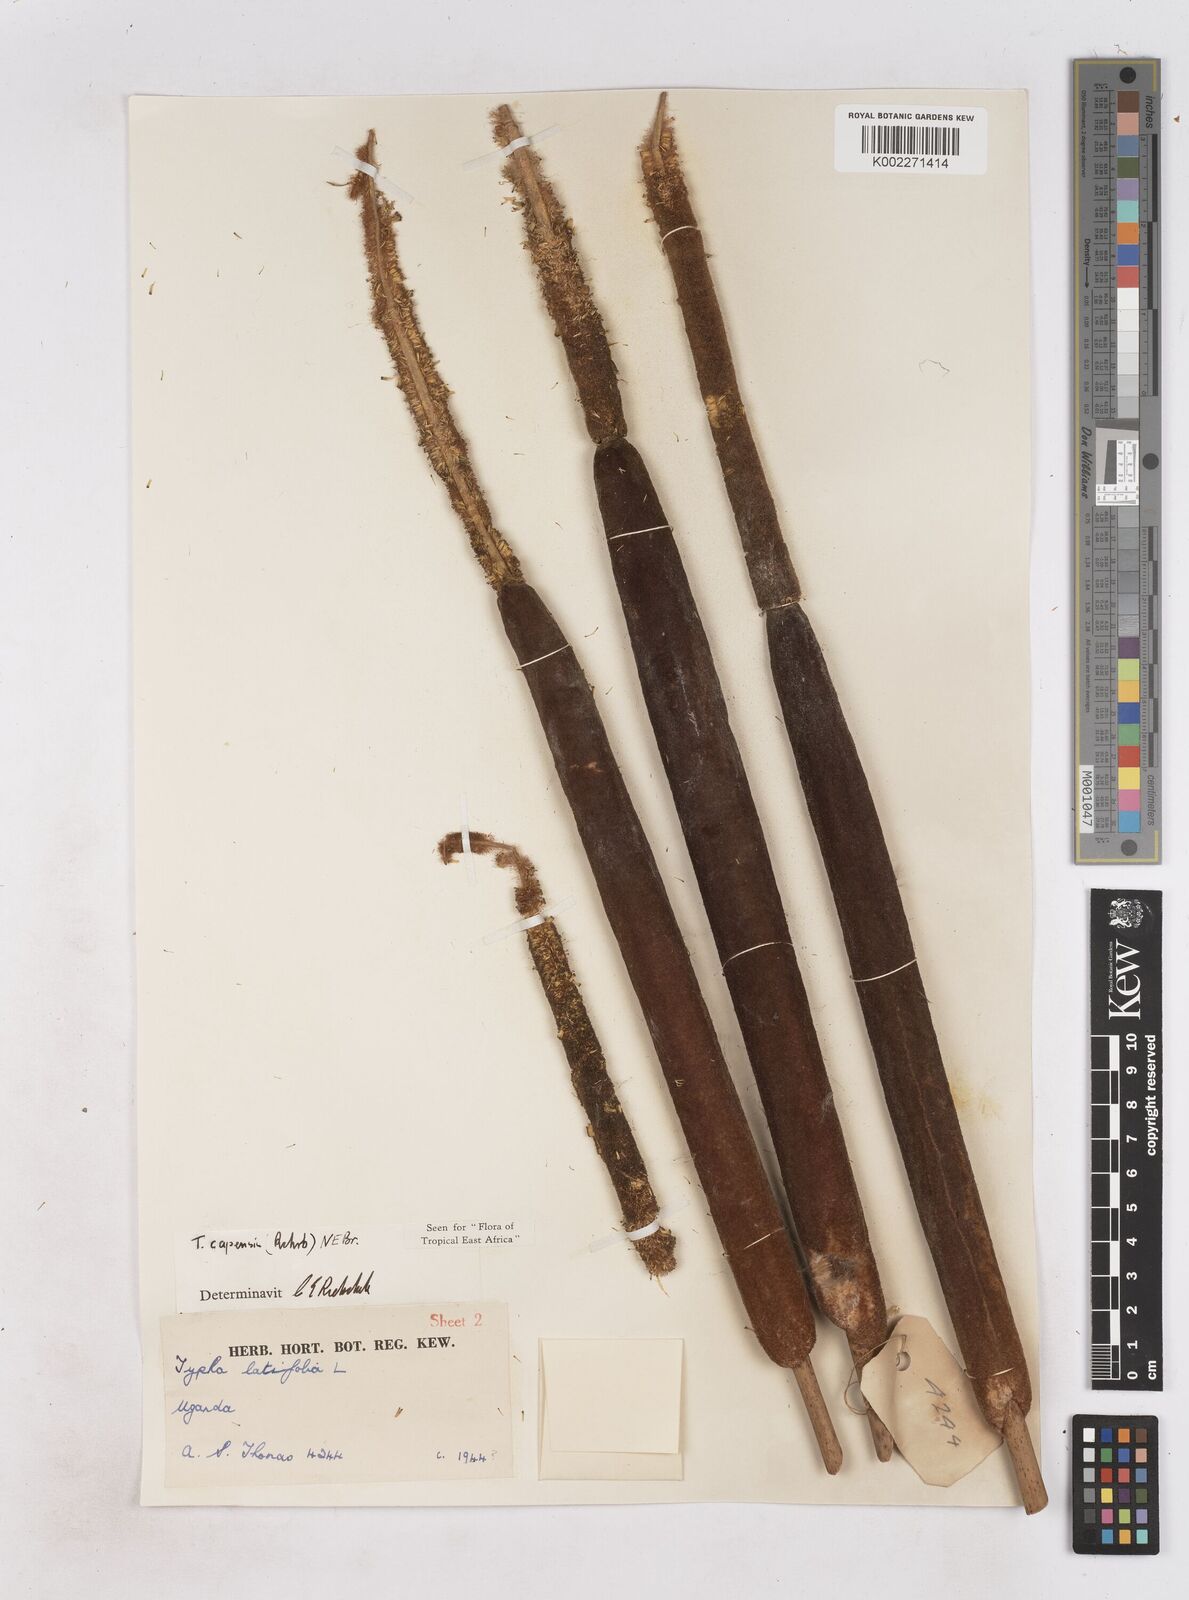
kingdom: Plantae
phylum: Tracheophyta
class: Liliopsida
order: Poales
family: Typhaceae
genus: Typha
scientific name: Typha capensis
